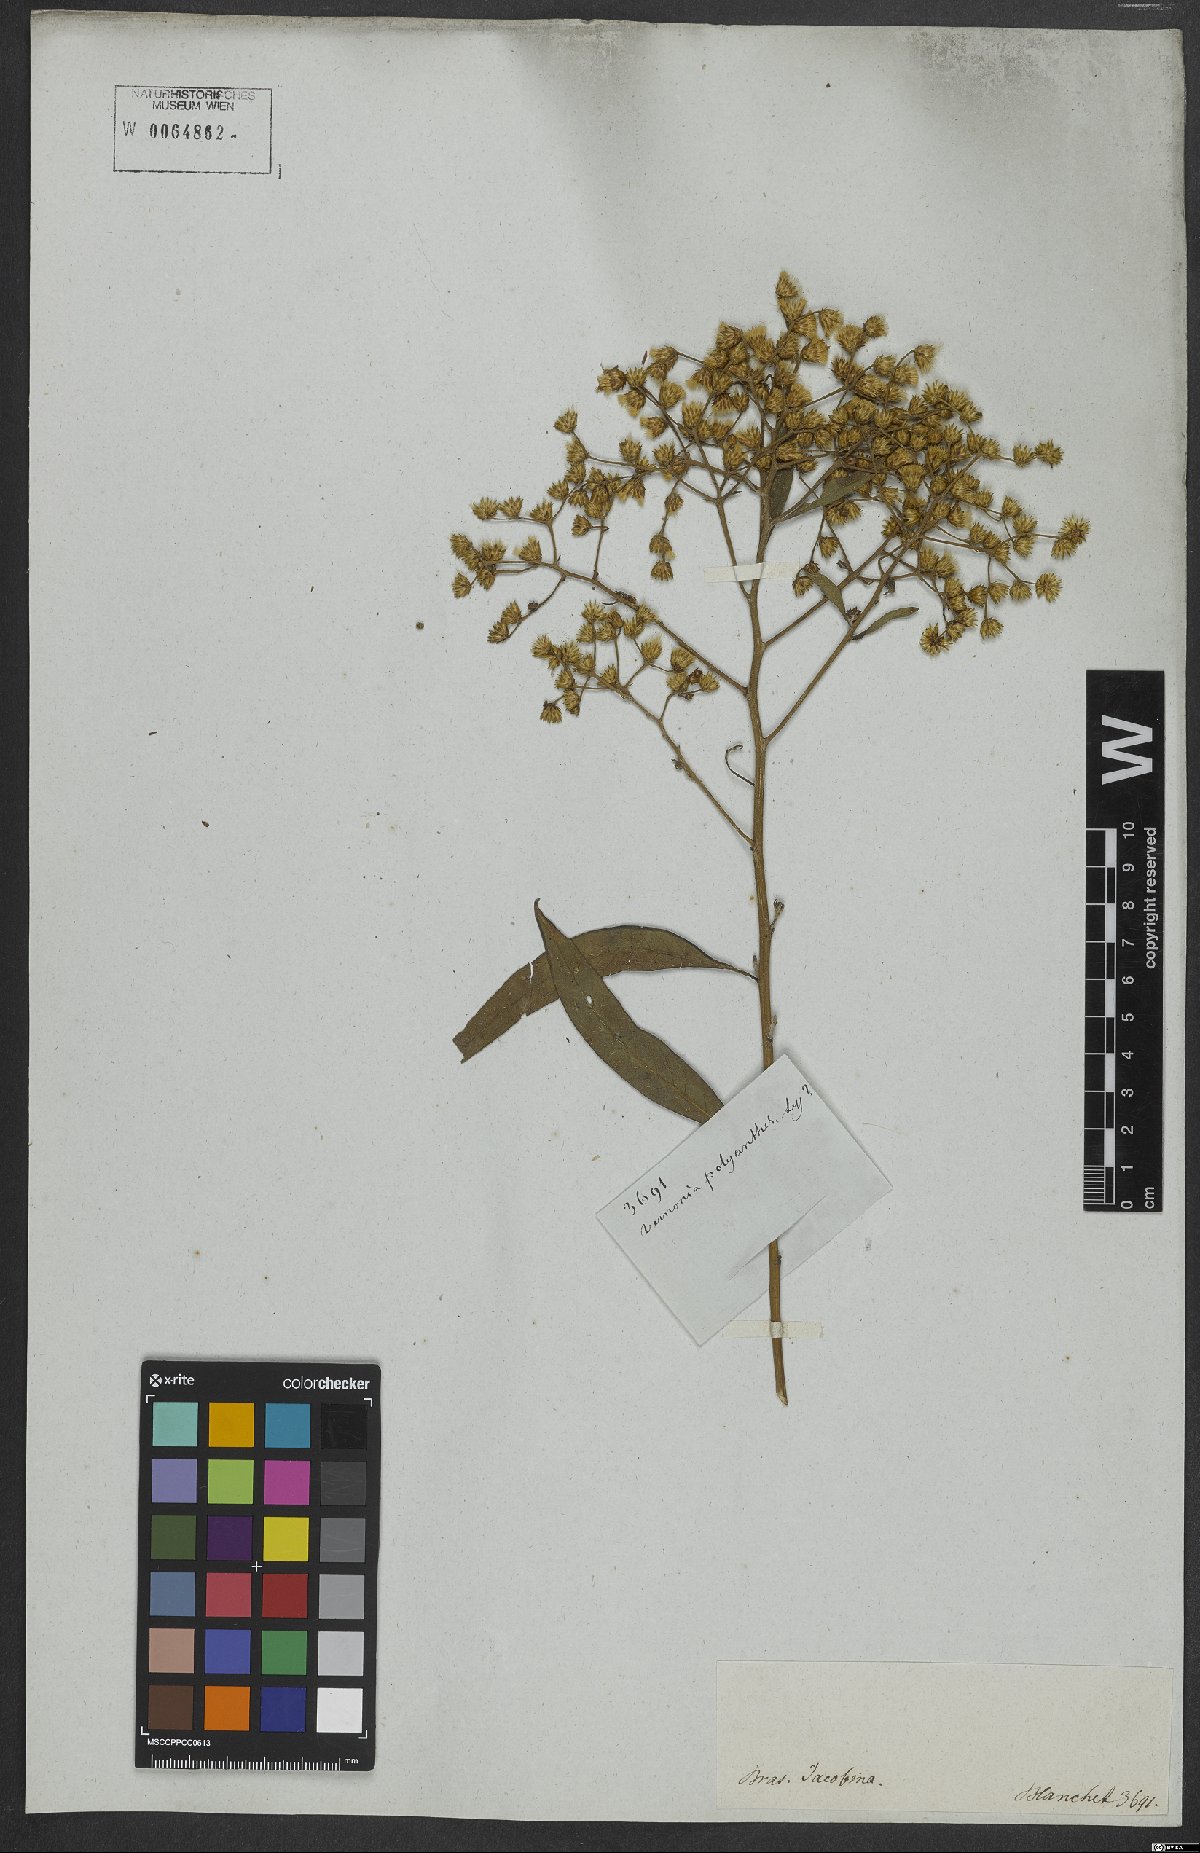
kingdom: Plantae
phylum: Tracheophyta
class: Magnoliopsida
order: Asterales
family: Asteraceae
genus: Vernonanthura
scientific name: Vernonanthura polyanthes
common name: Tree aster
